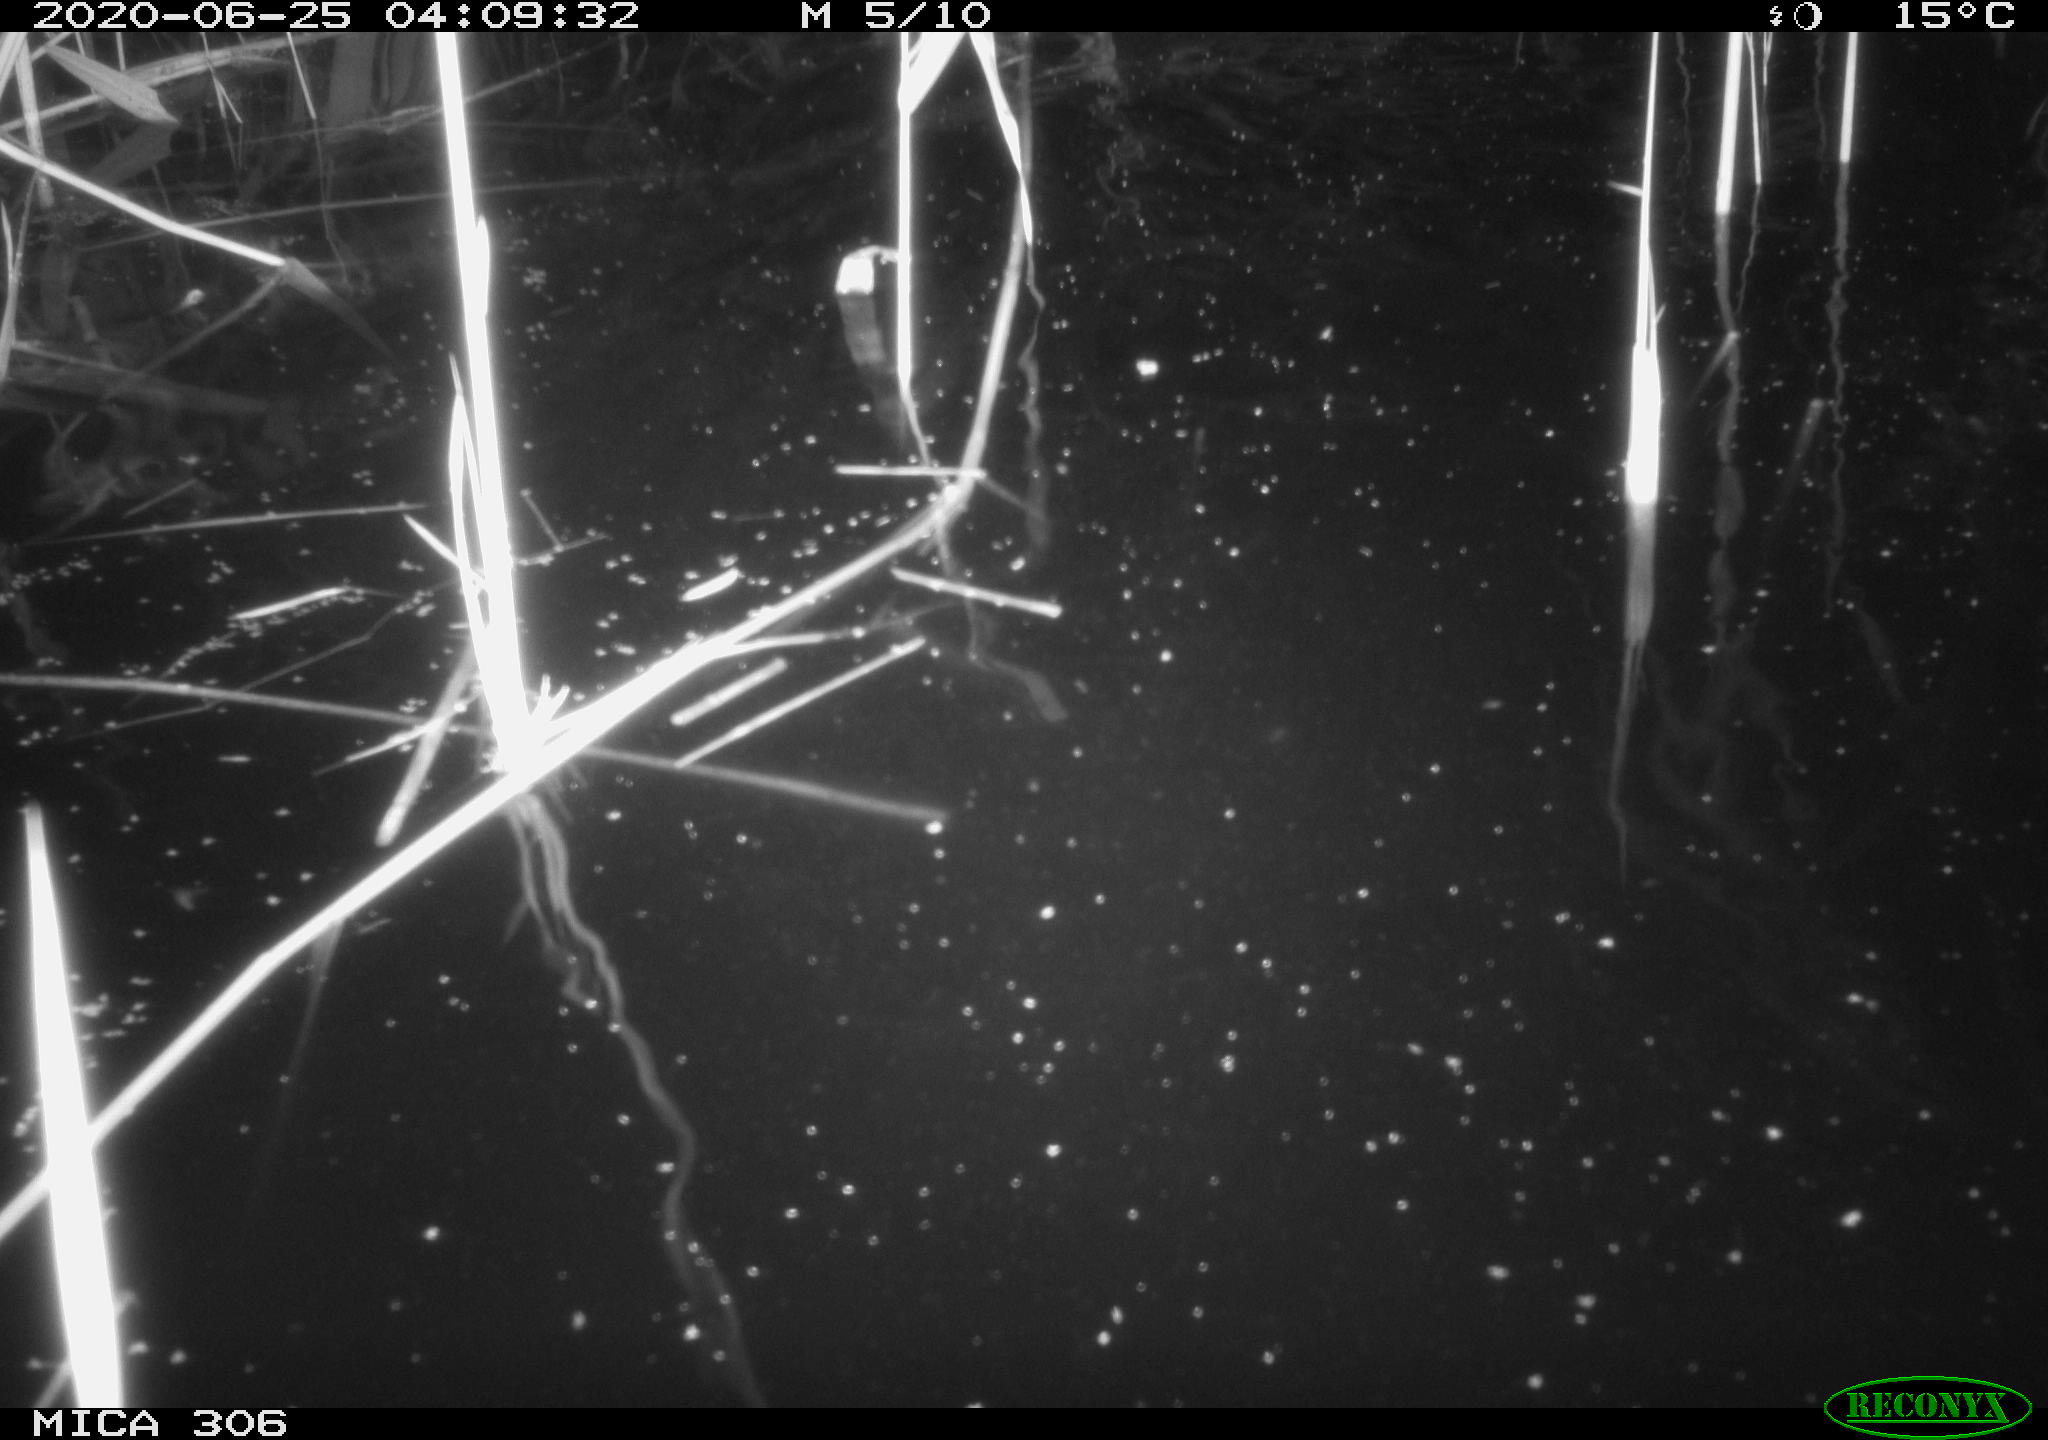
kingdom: Animalia
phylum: Chordata
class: Mammalia
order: Rodentia
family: Muridae
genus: Rattus
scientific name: Rattus norvegicus
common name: Brown rat
